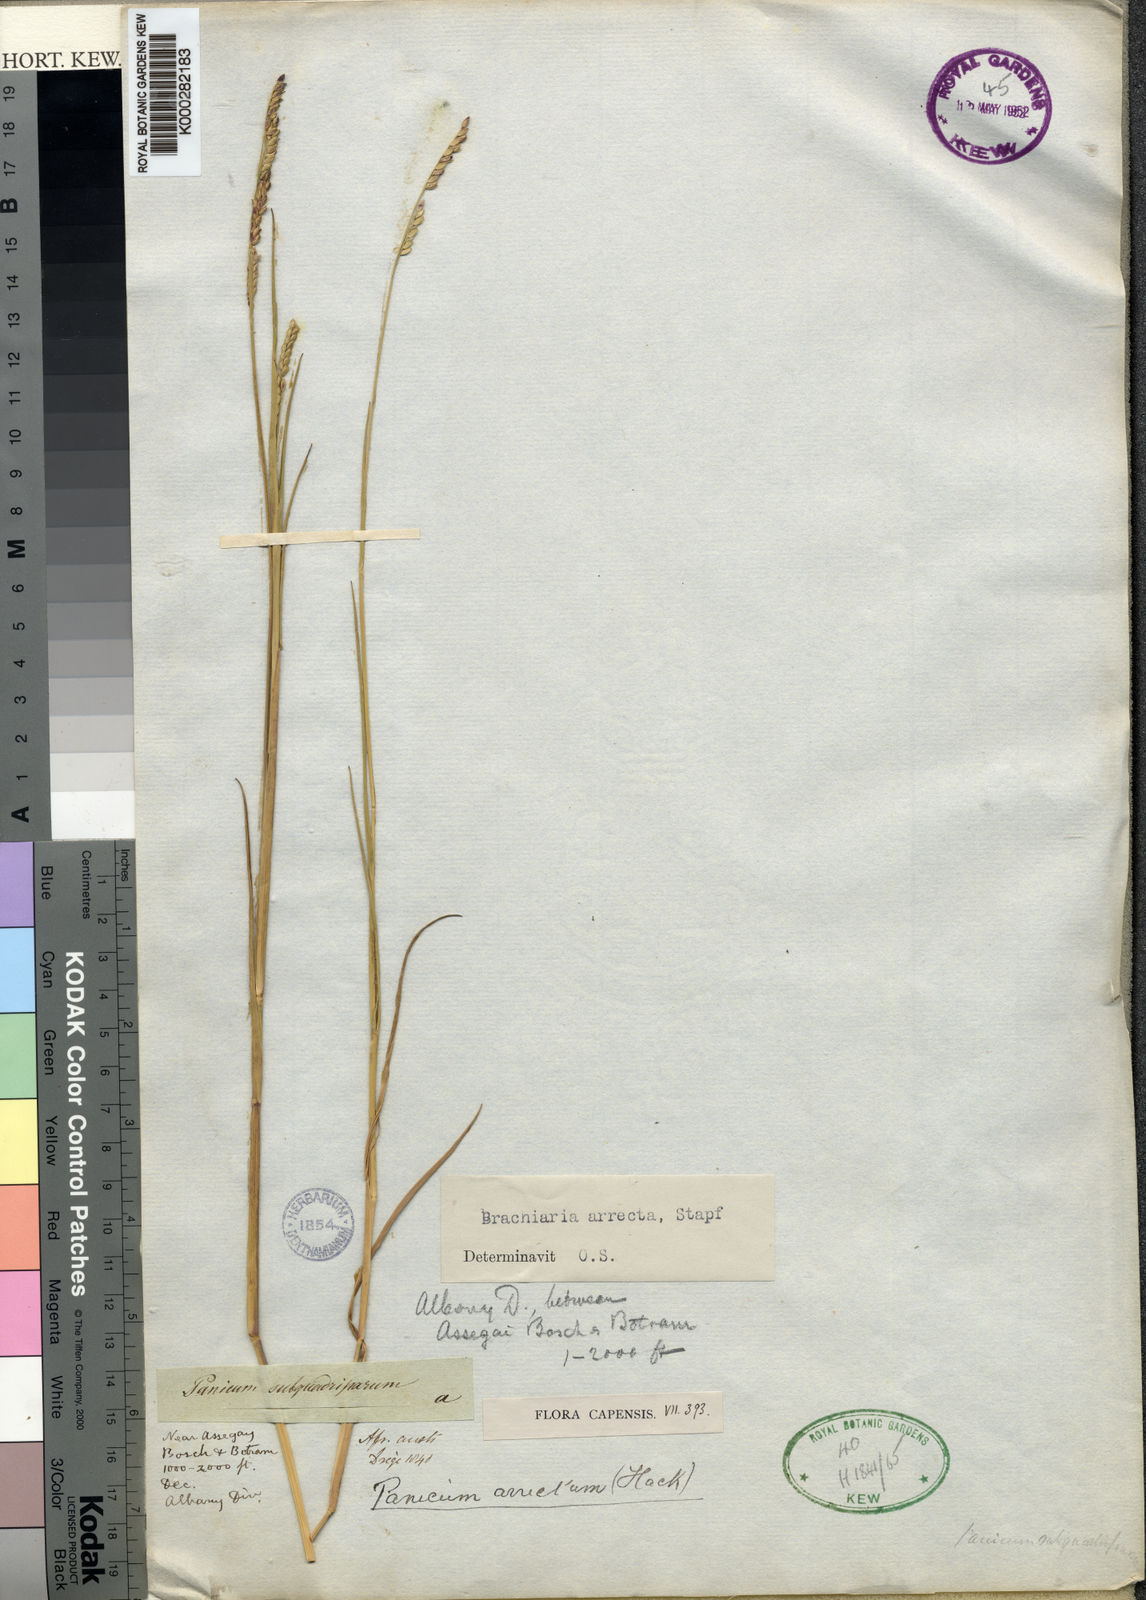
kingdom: Plantae
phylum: Tracheophyta
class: Liliopsida
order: Poales
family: Poaceae
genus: Urochloa
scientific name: Urochloa arrecta
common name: African signalgrass
